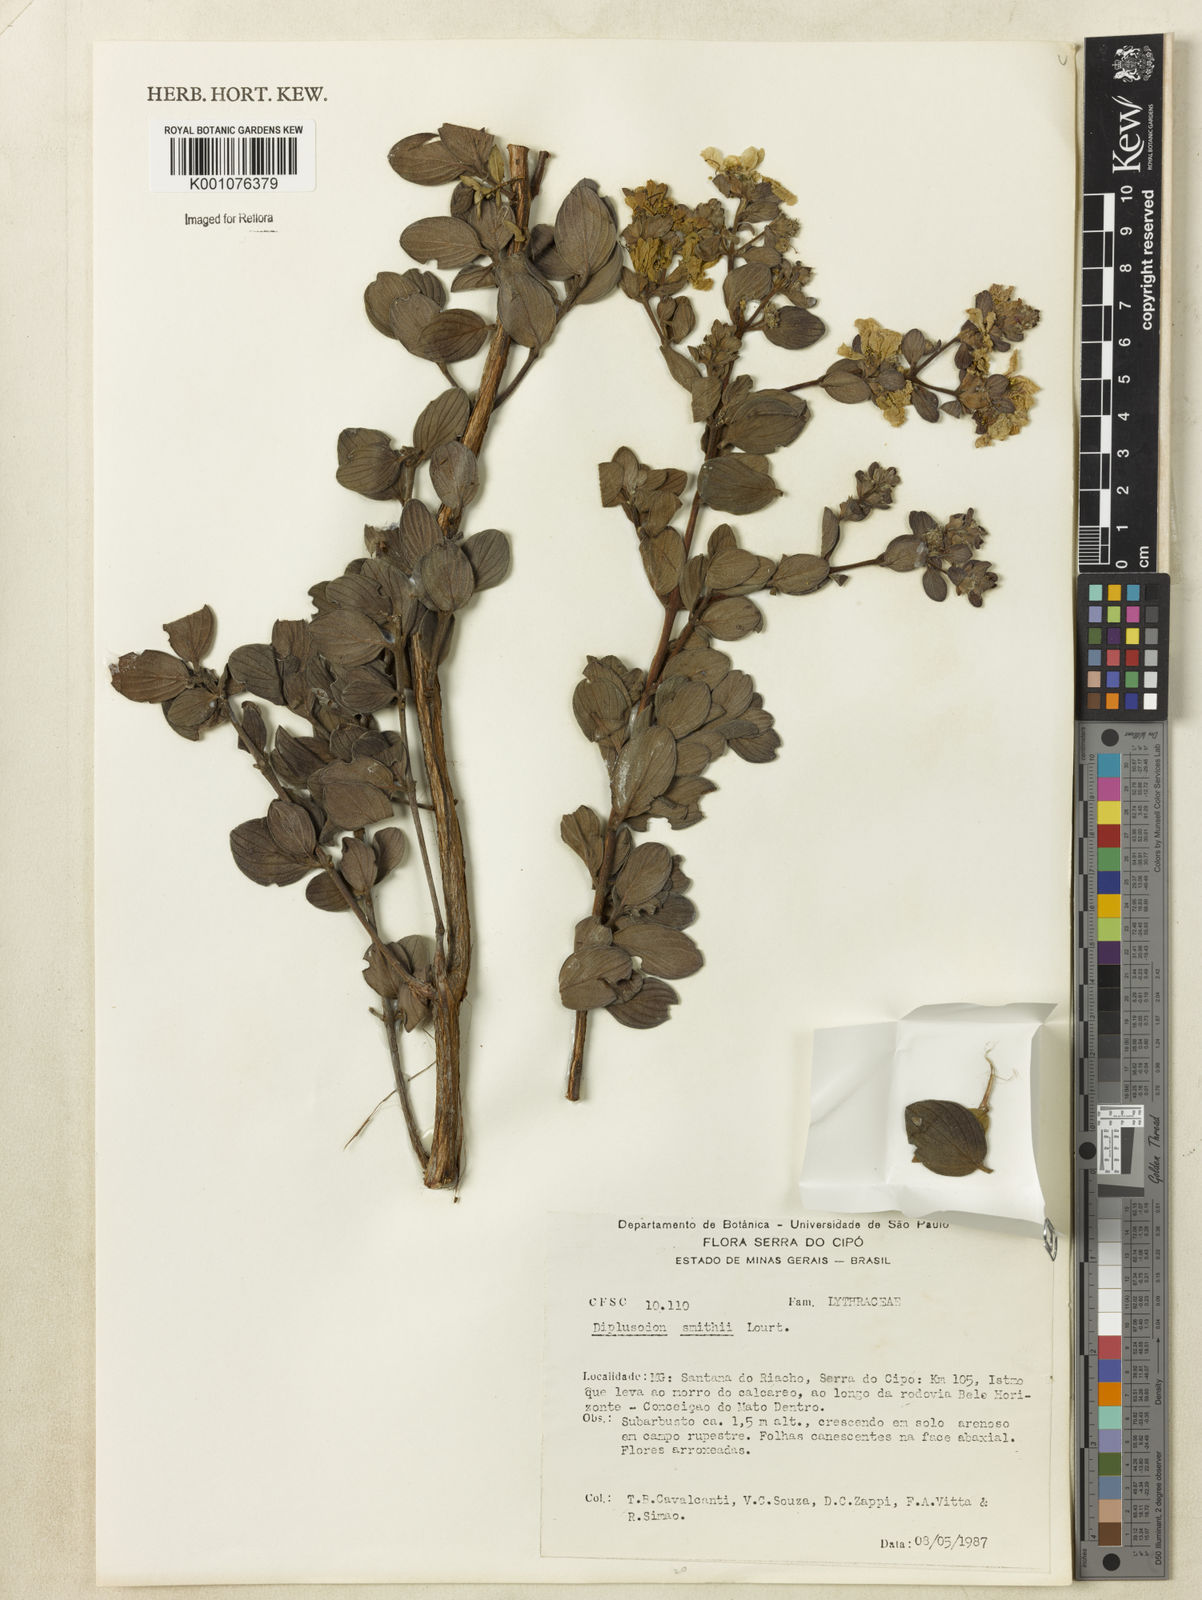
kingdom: Plantae
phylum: Tracheophyta
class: Magnoliopsida
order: Myrtales
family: Lythraceae
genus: Diplusodon
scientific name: Diplusodon hirsutus
